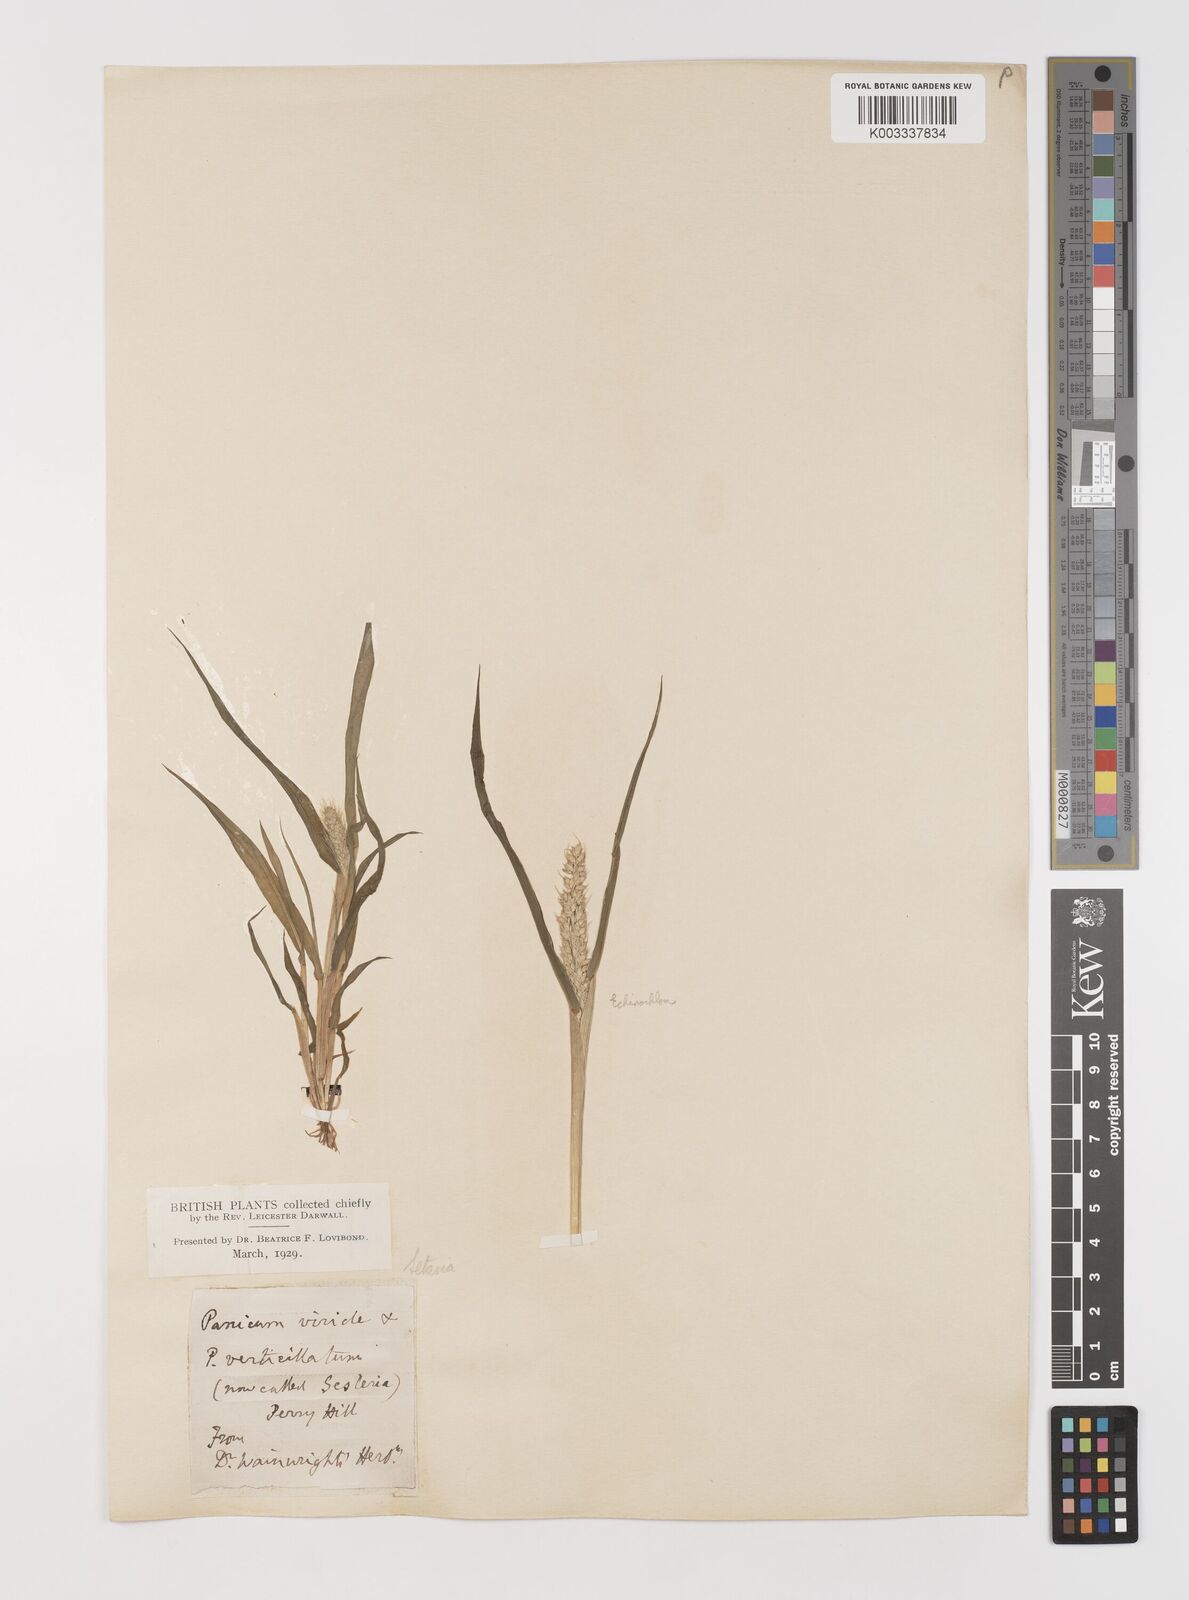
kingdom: Plantae
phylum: Tracheophyta
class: Liliopsida
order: Poales
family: Poaceae
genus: Setaria
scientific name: Setaria viridis
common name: Green bristlegrass
